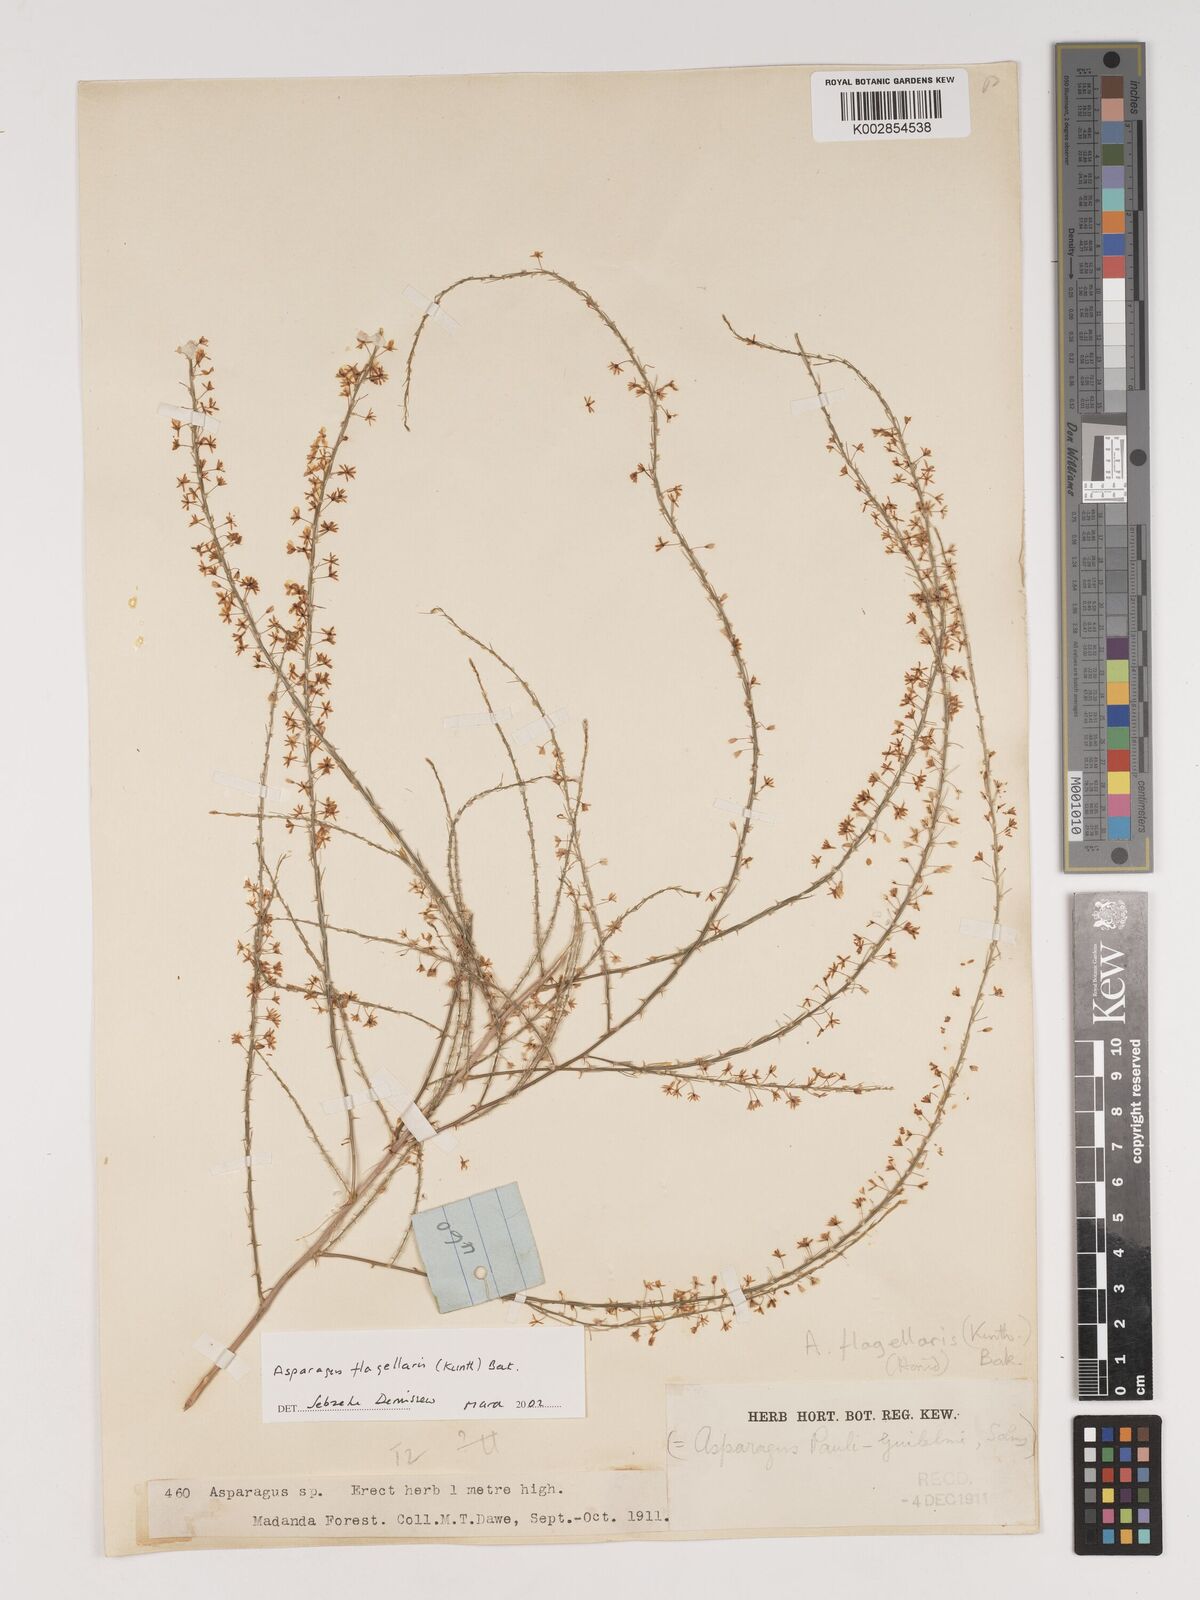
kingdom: Plantae
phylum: Tracheophyta
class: Liliopsida
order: Asparagales
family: Asparagaceae
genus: Asparagus
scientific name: Asparagus flagellaris
